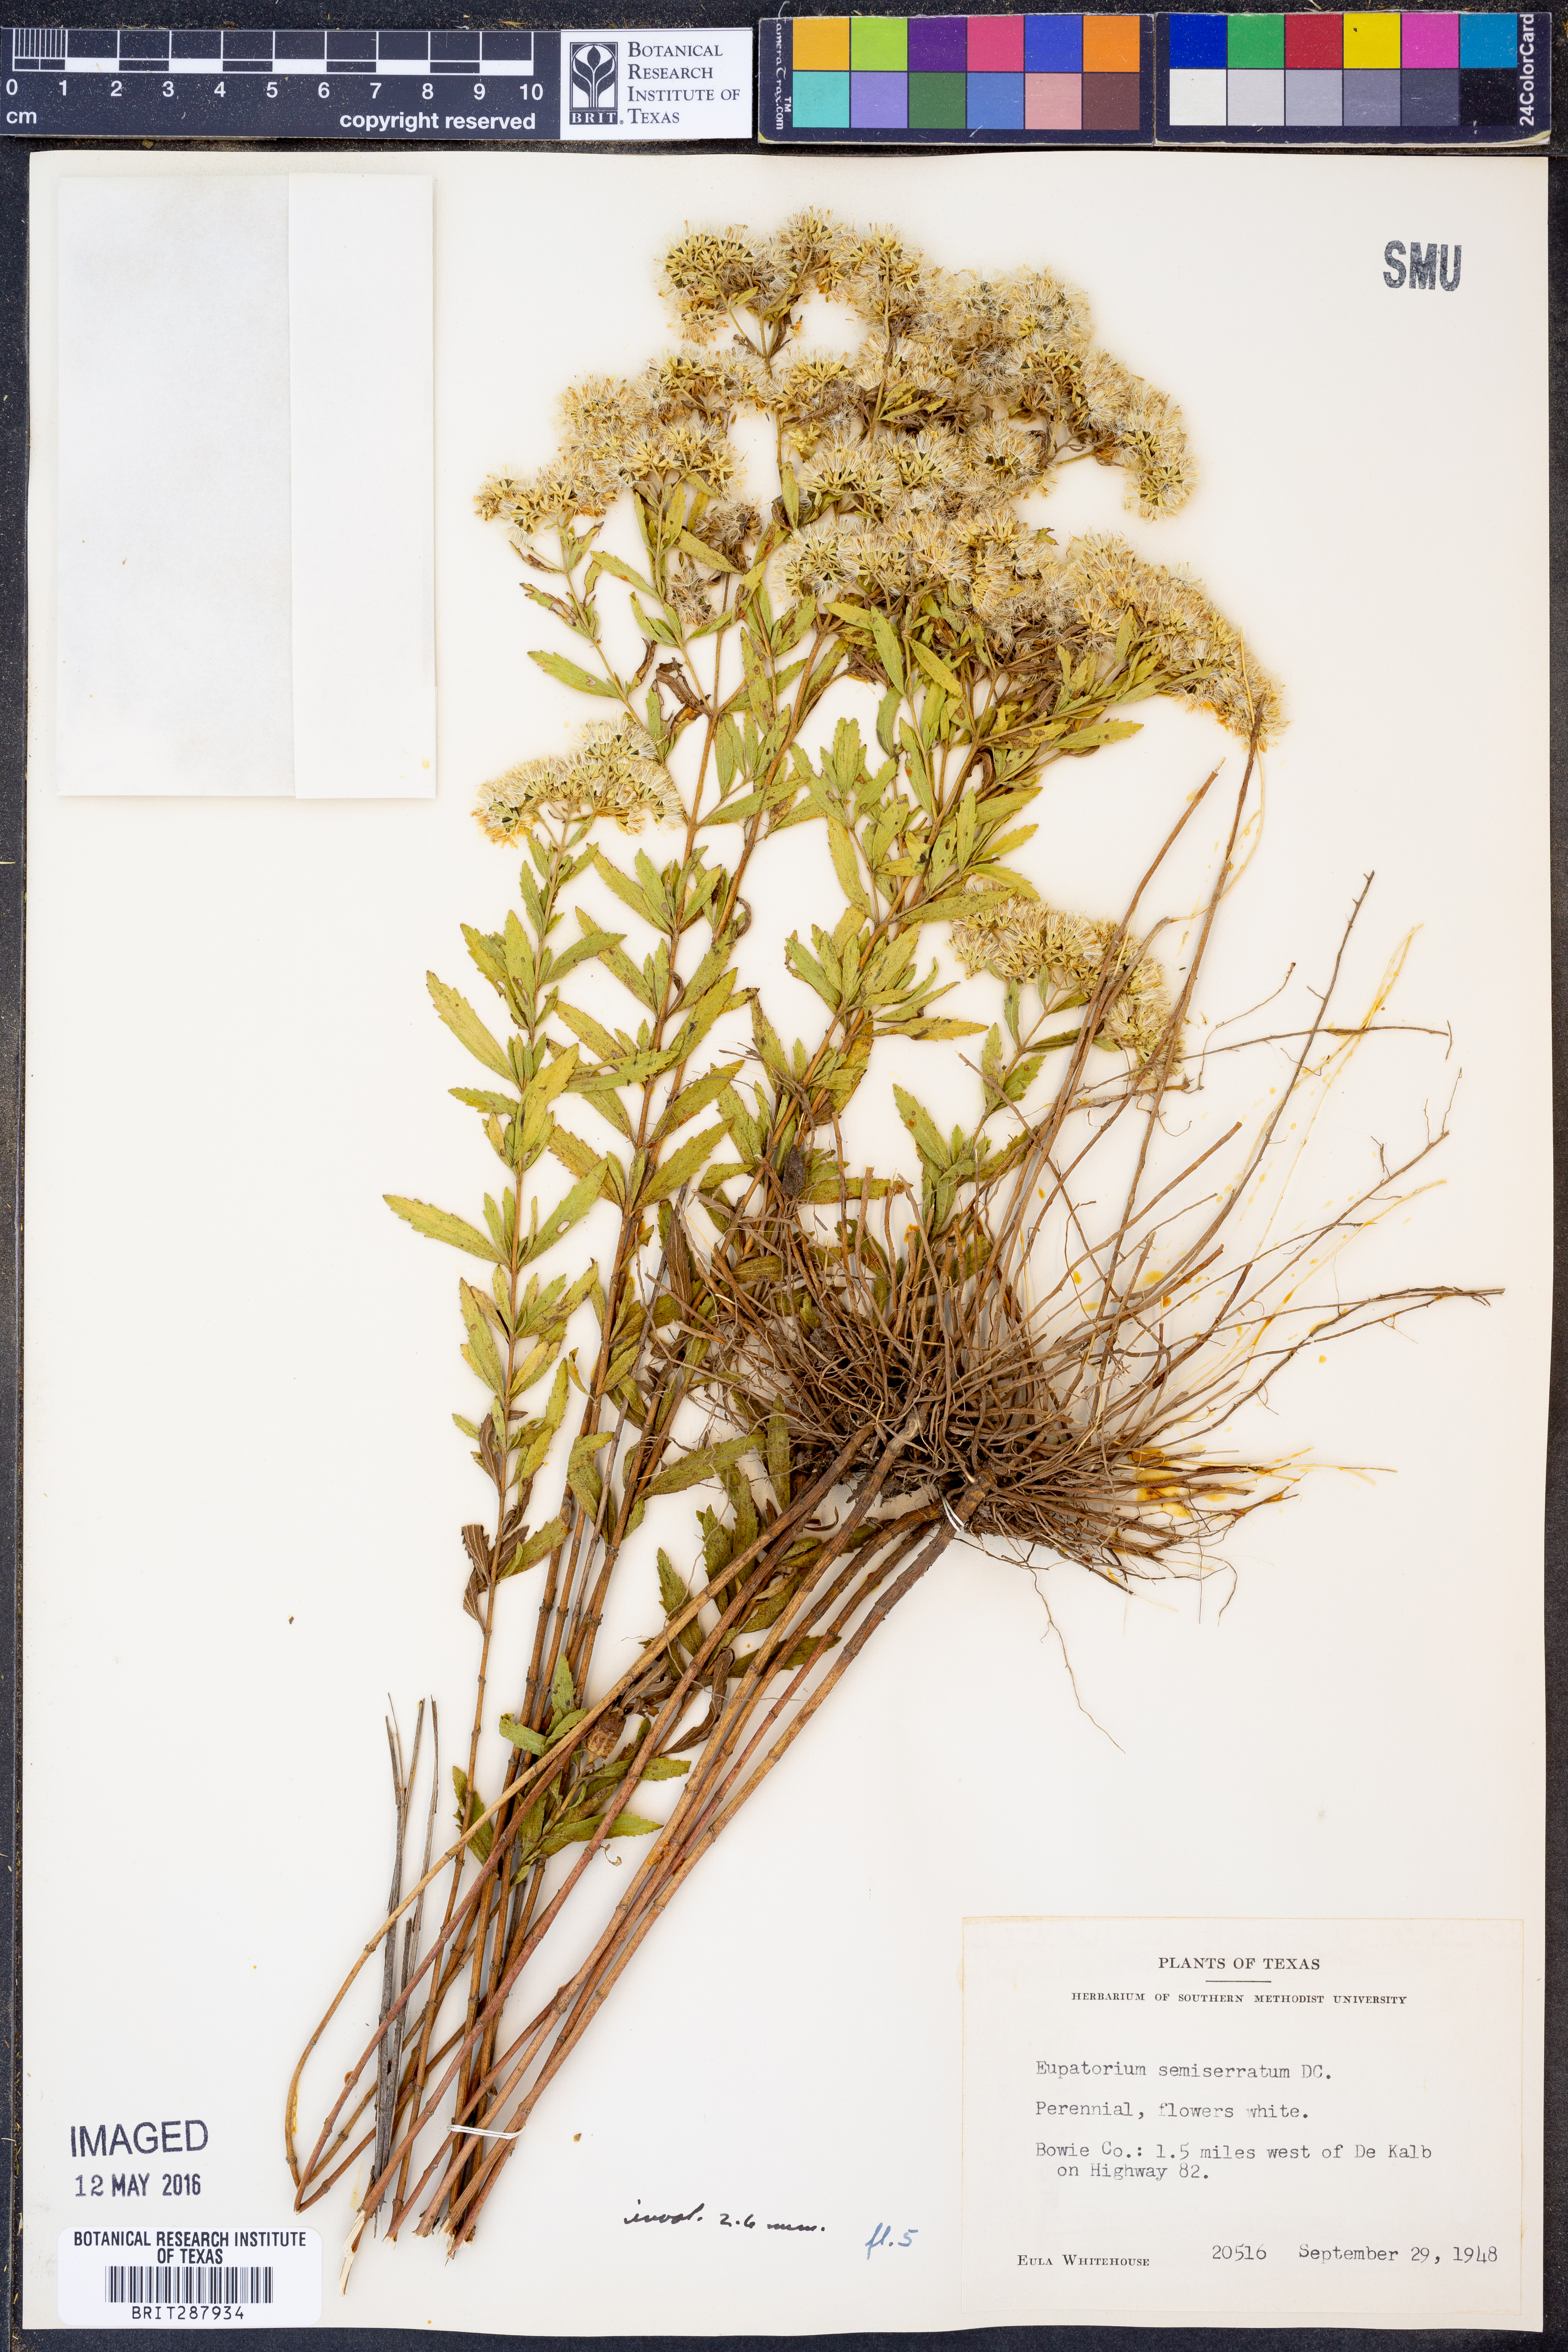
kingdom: Plantae
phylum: Tracheophyta
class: Magnoliopsida
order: Asterales
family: Asteraceae
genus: Eupatorium
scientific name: Eupatorium semiserratum
